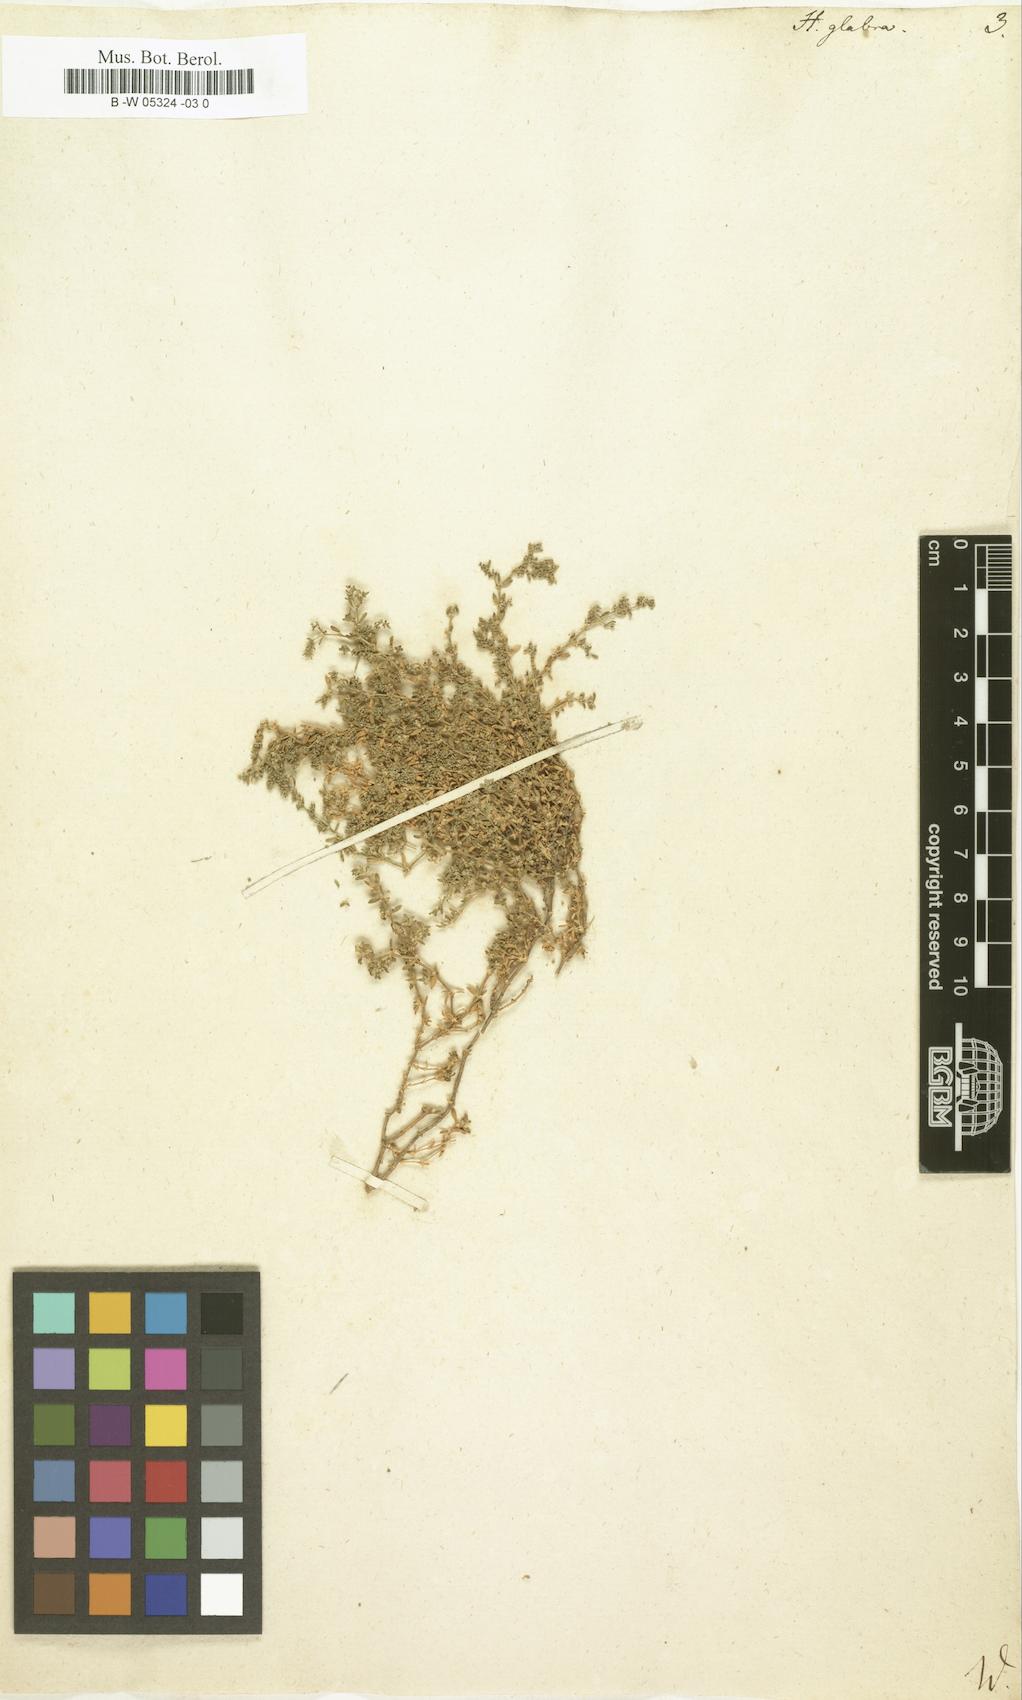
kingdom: Plantae
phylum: Tracheophyta
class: Magnoliopsida
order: Caryophyllales
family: Caryophyllaceae
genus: Herniaria
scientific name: Herniaria glabra
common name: Smooth rupturewort
